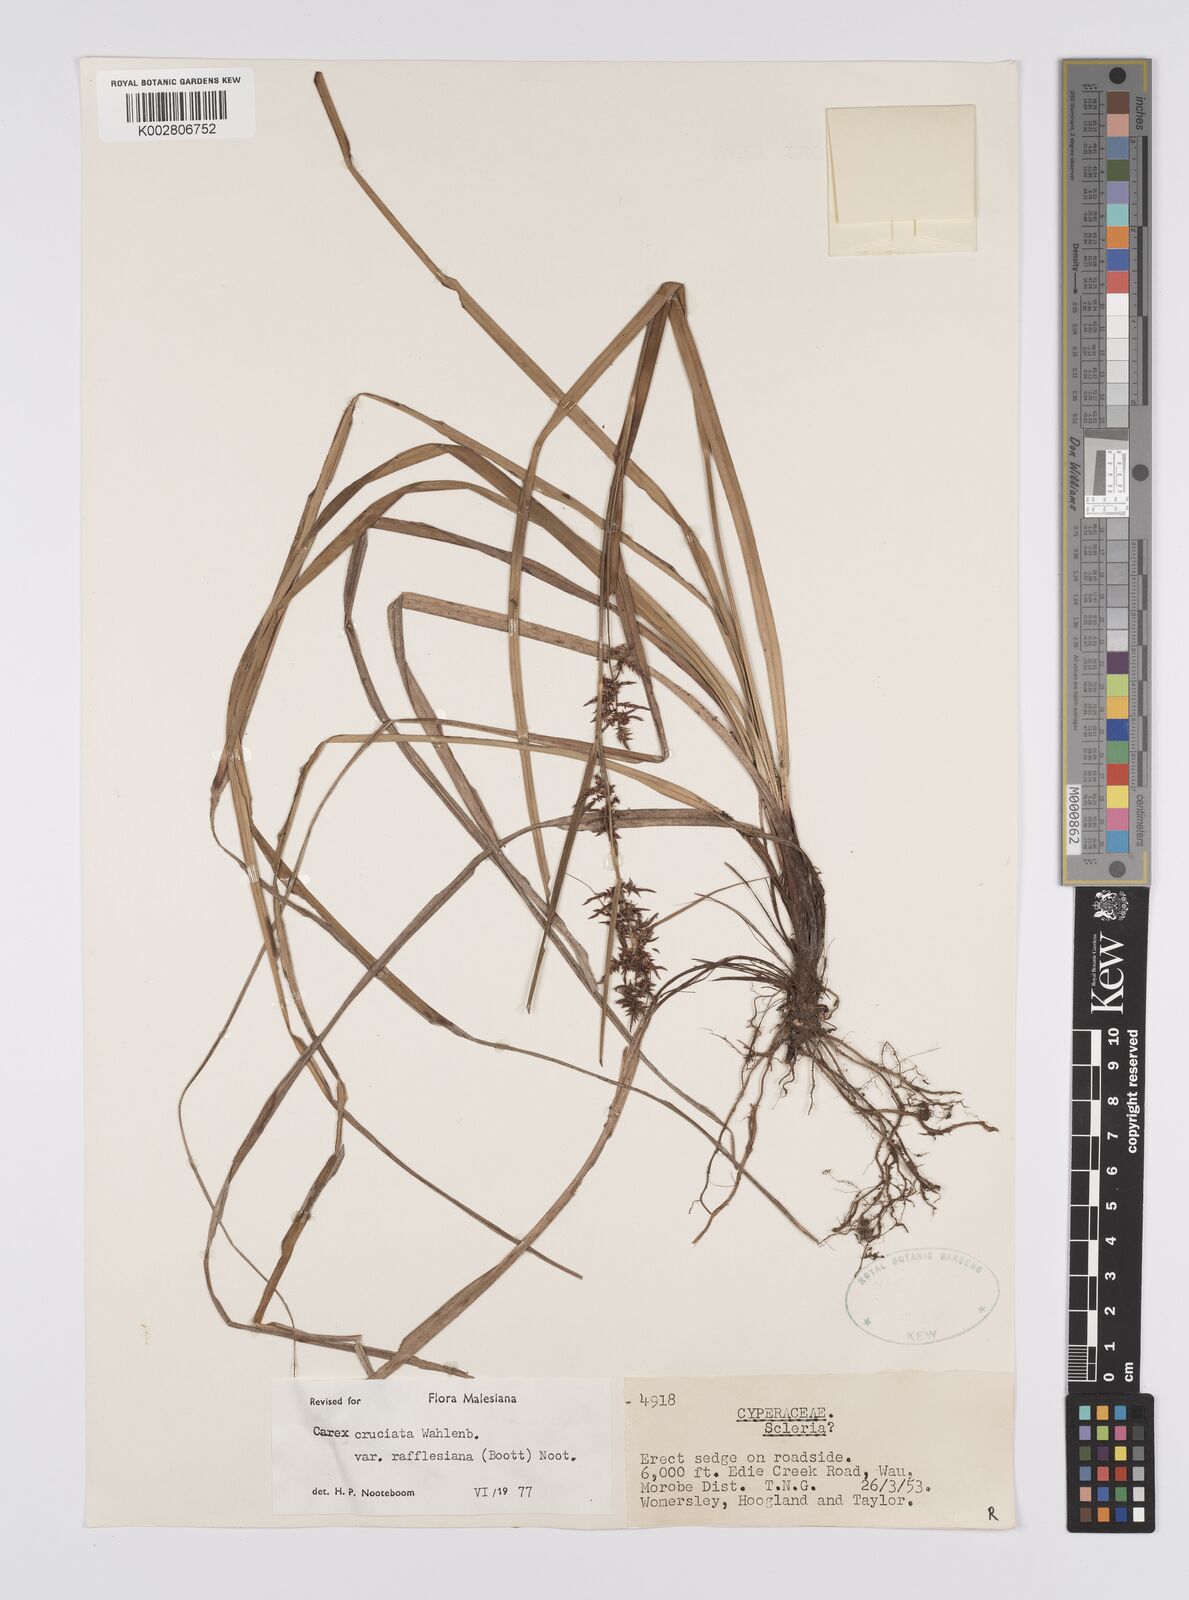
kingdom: Plantae
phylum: Tracheophyta
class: Liliopsida
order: Poales
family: Cyperaceae
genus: Carex
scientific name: Carex rafflesiana
